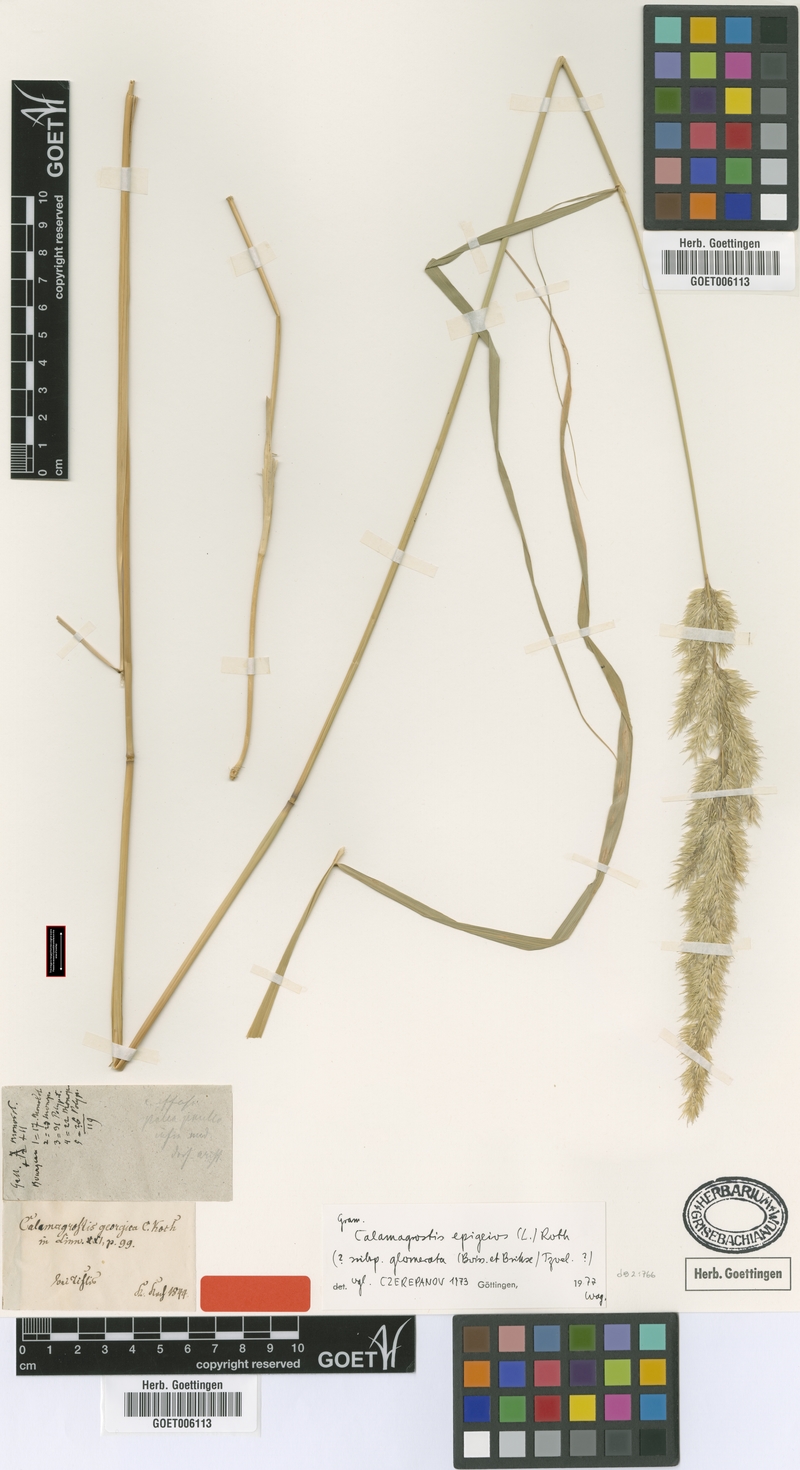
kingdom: Plantae
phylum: Tracheophyta
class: Liliopsida
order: Poales
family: Poaceae
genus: Calamagrostis
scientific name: Calamagrostis epigejos
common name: Wood small-reed
